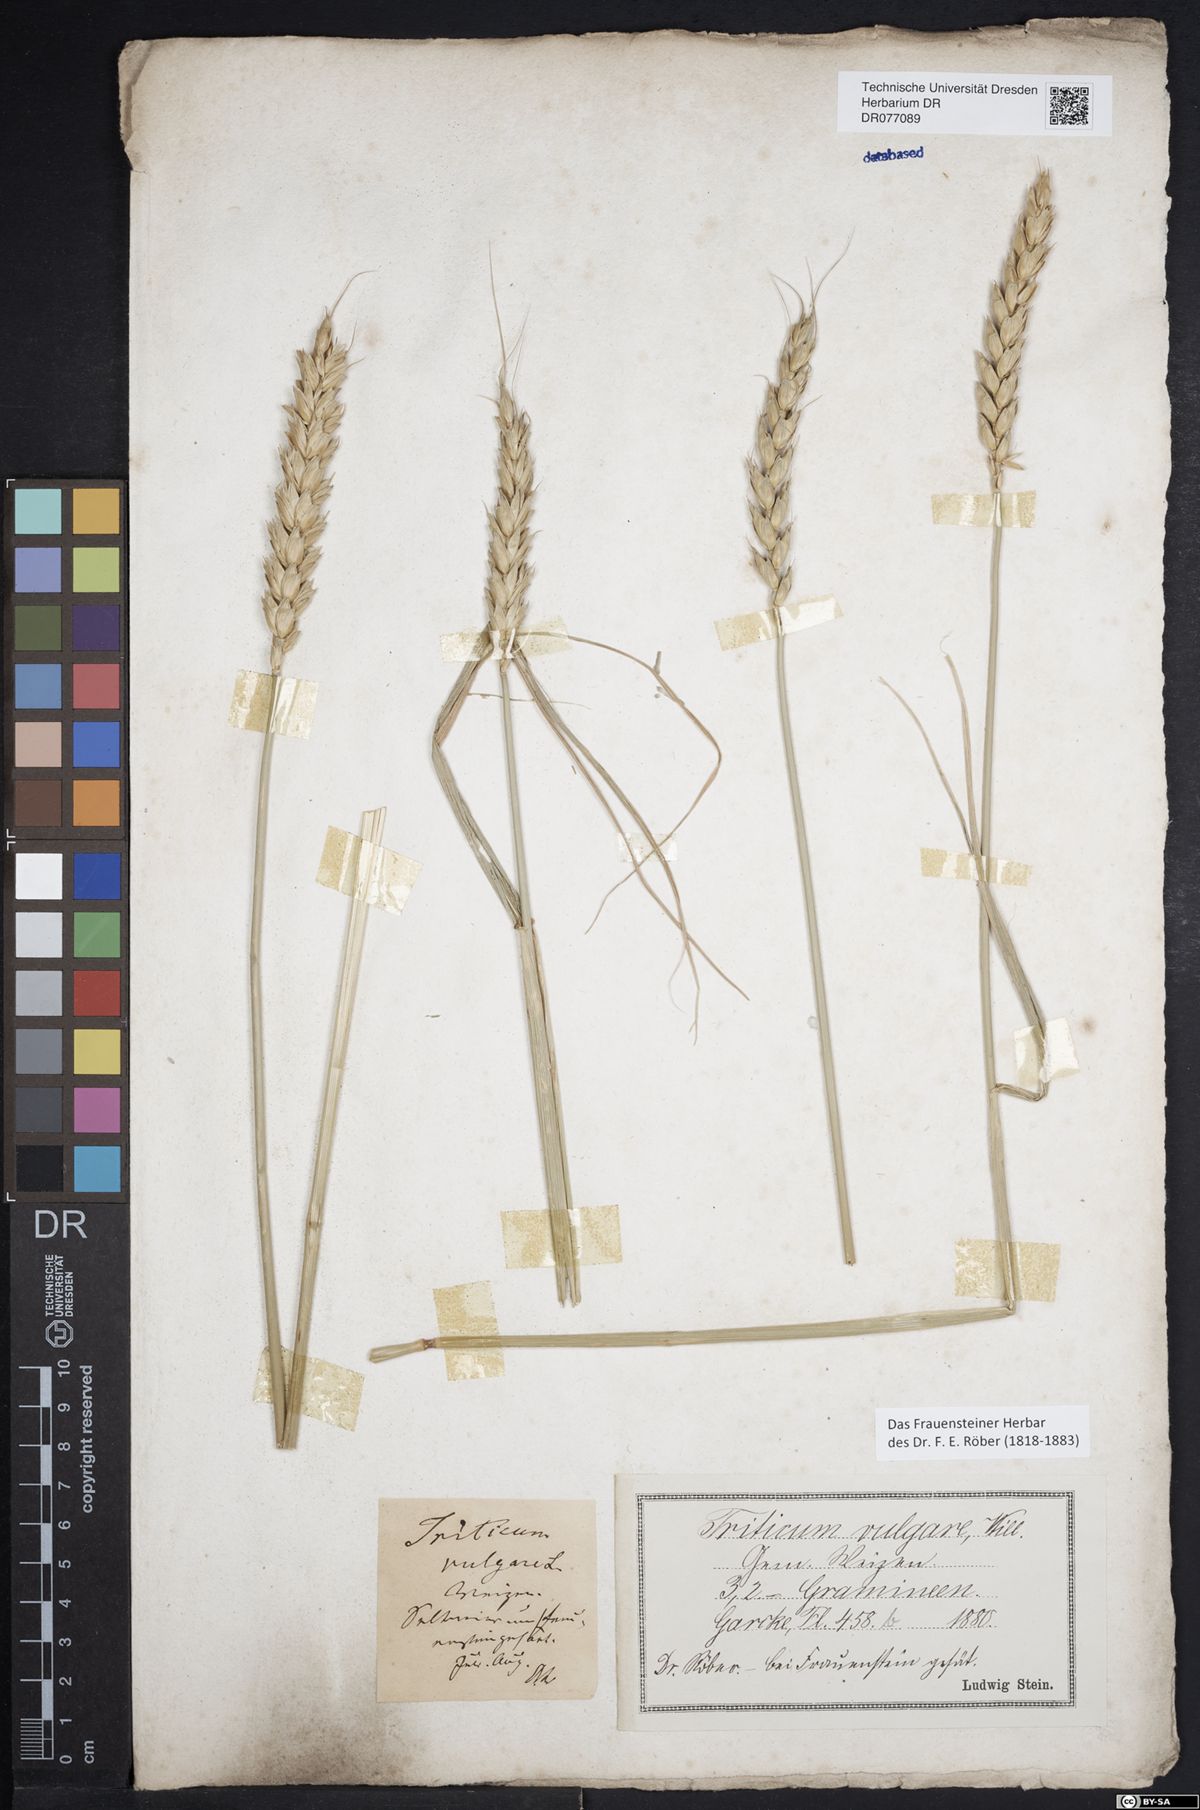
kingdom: Plantae
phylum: Tracheophyta
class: Liliopsida
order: Poales
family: Poaceae
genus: Triticum
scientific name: Triticum aestivum
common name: Common wheat
